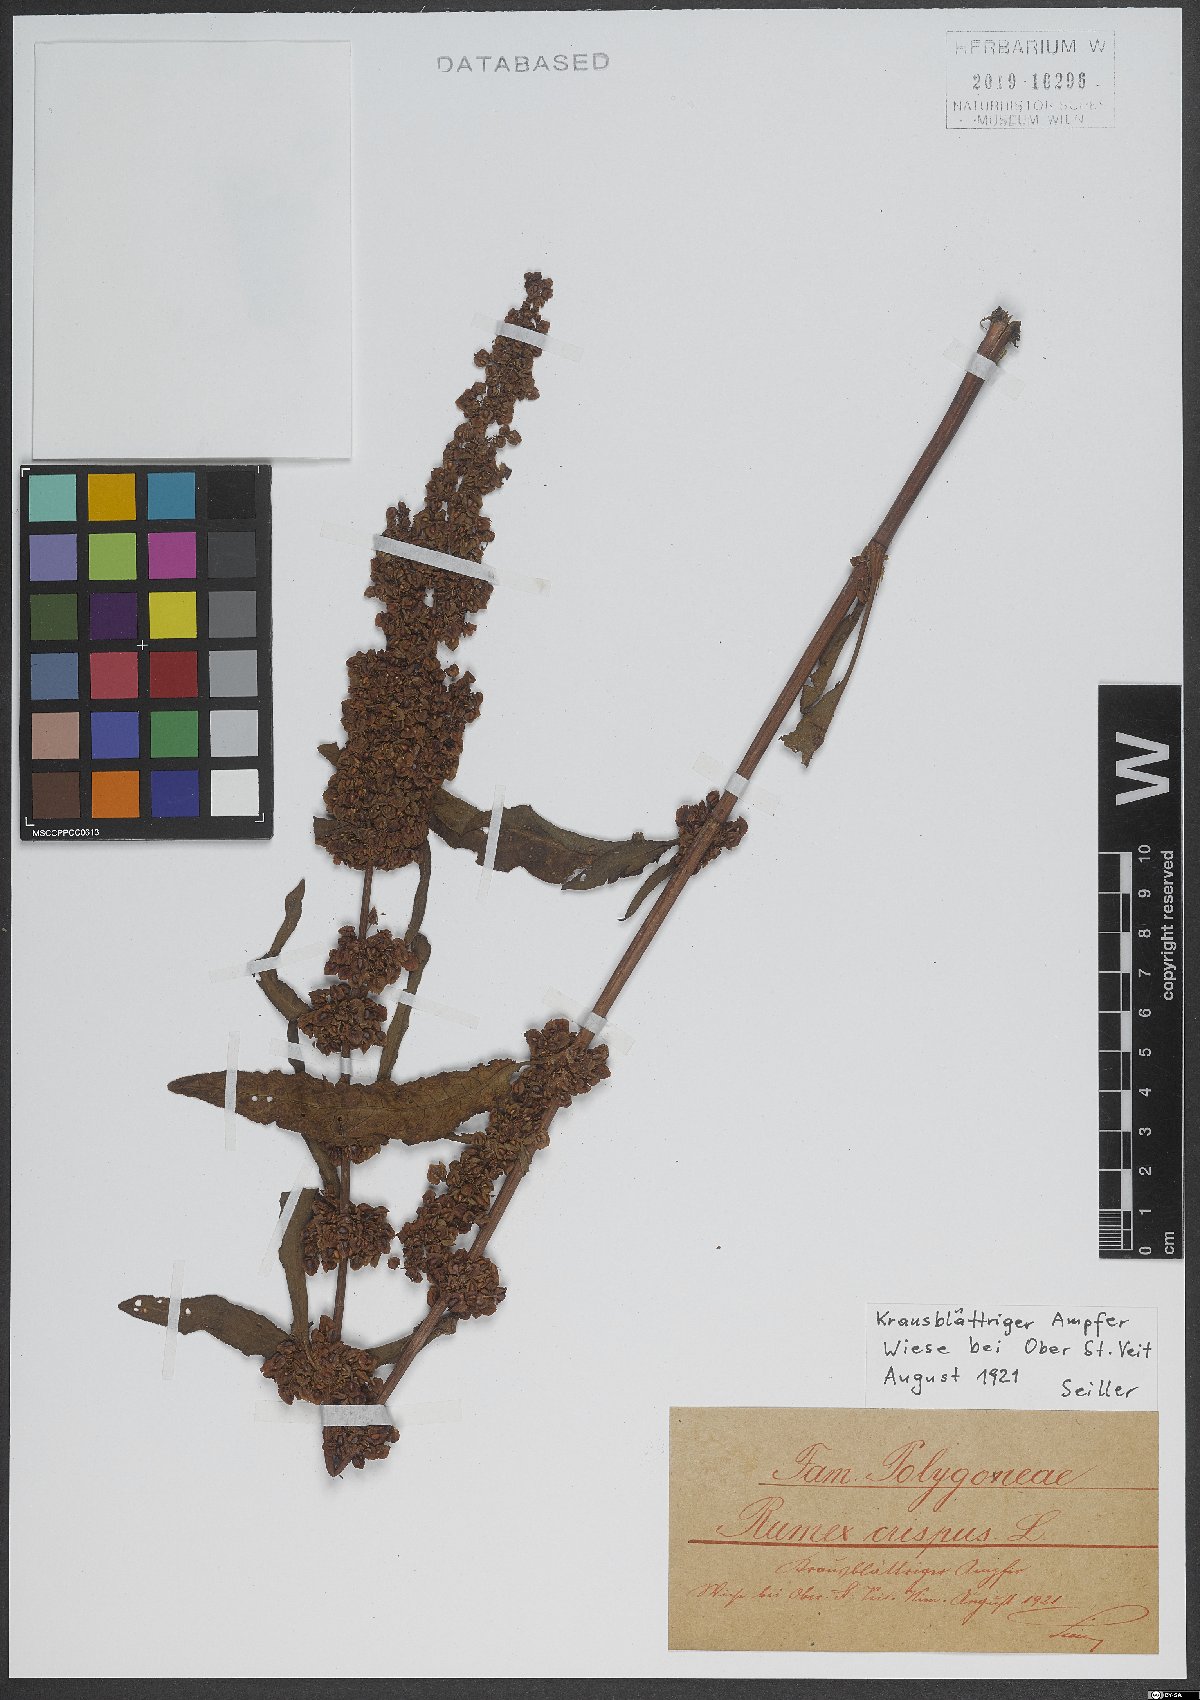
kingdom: Plantae
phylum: Tracheophyta
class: Magnoliopsida
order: Caryophyllales
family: Polygonaceae
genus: Rumex
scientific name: Rumex crispus
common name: Curled dock
